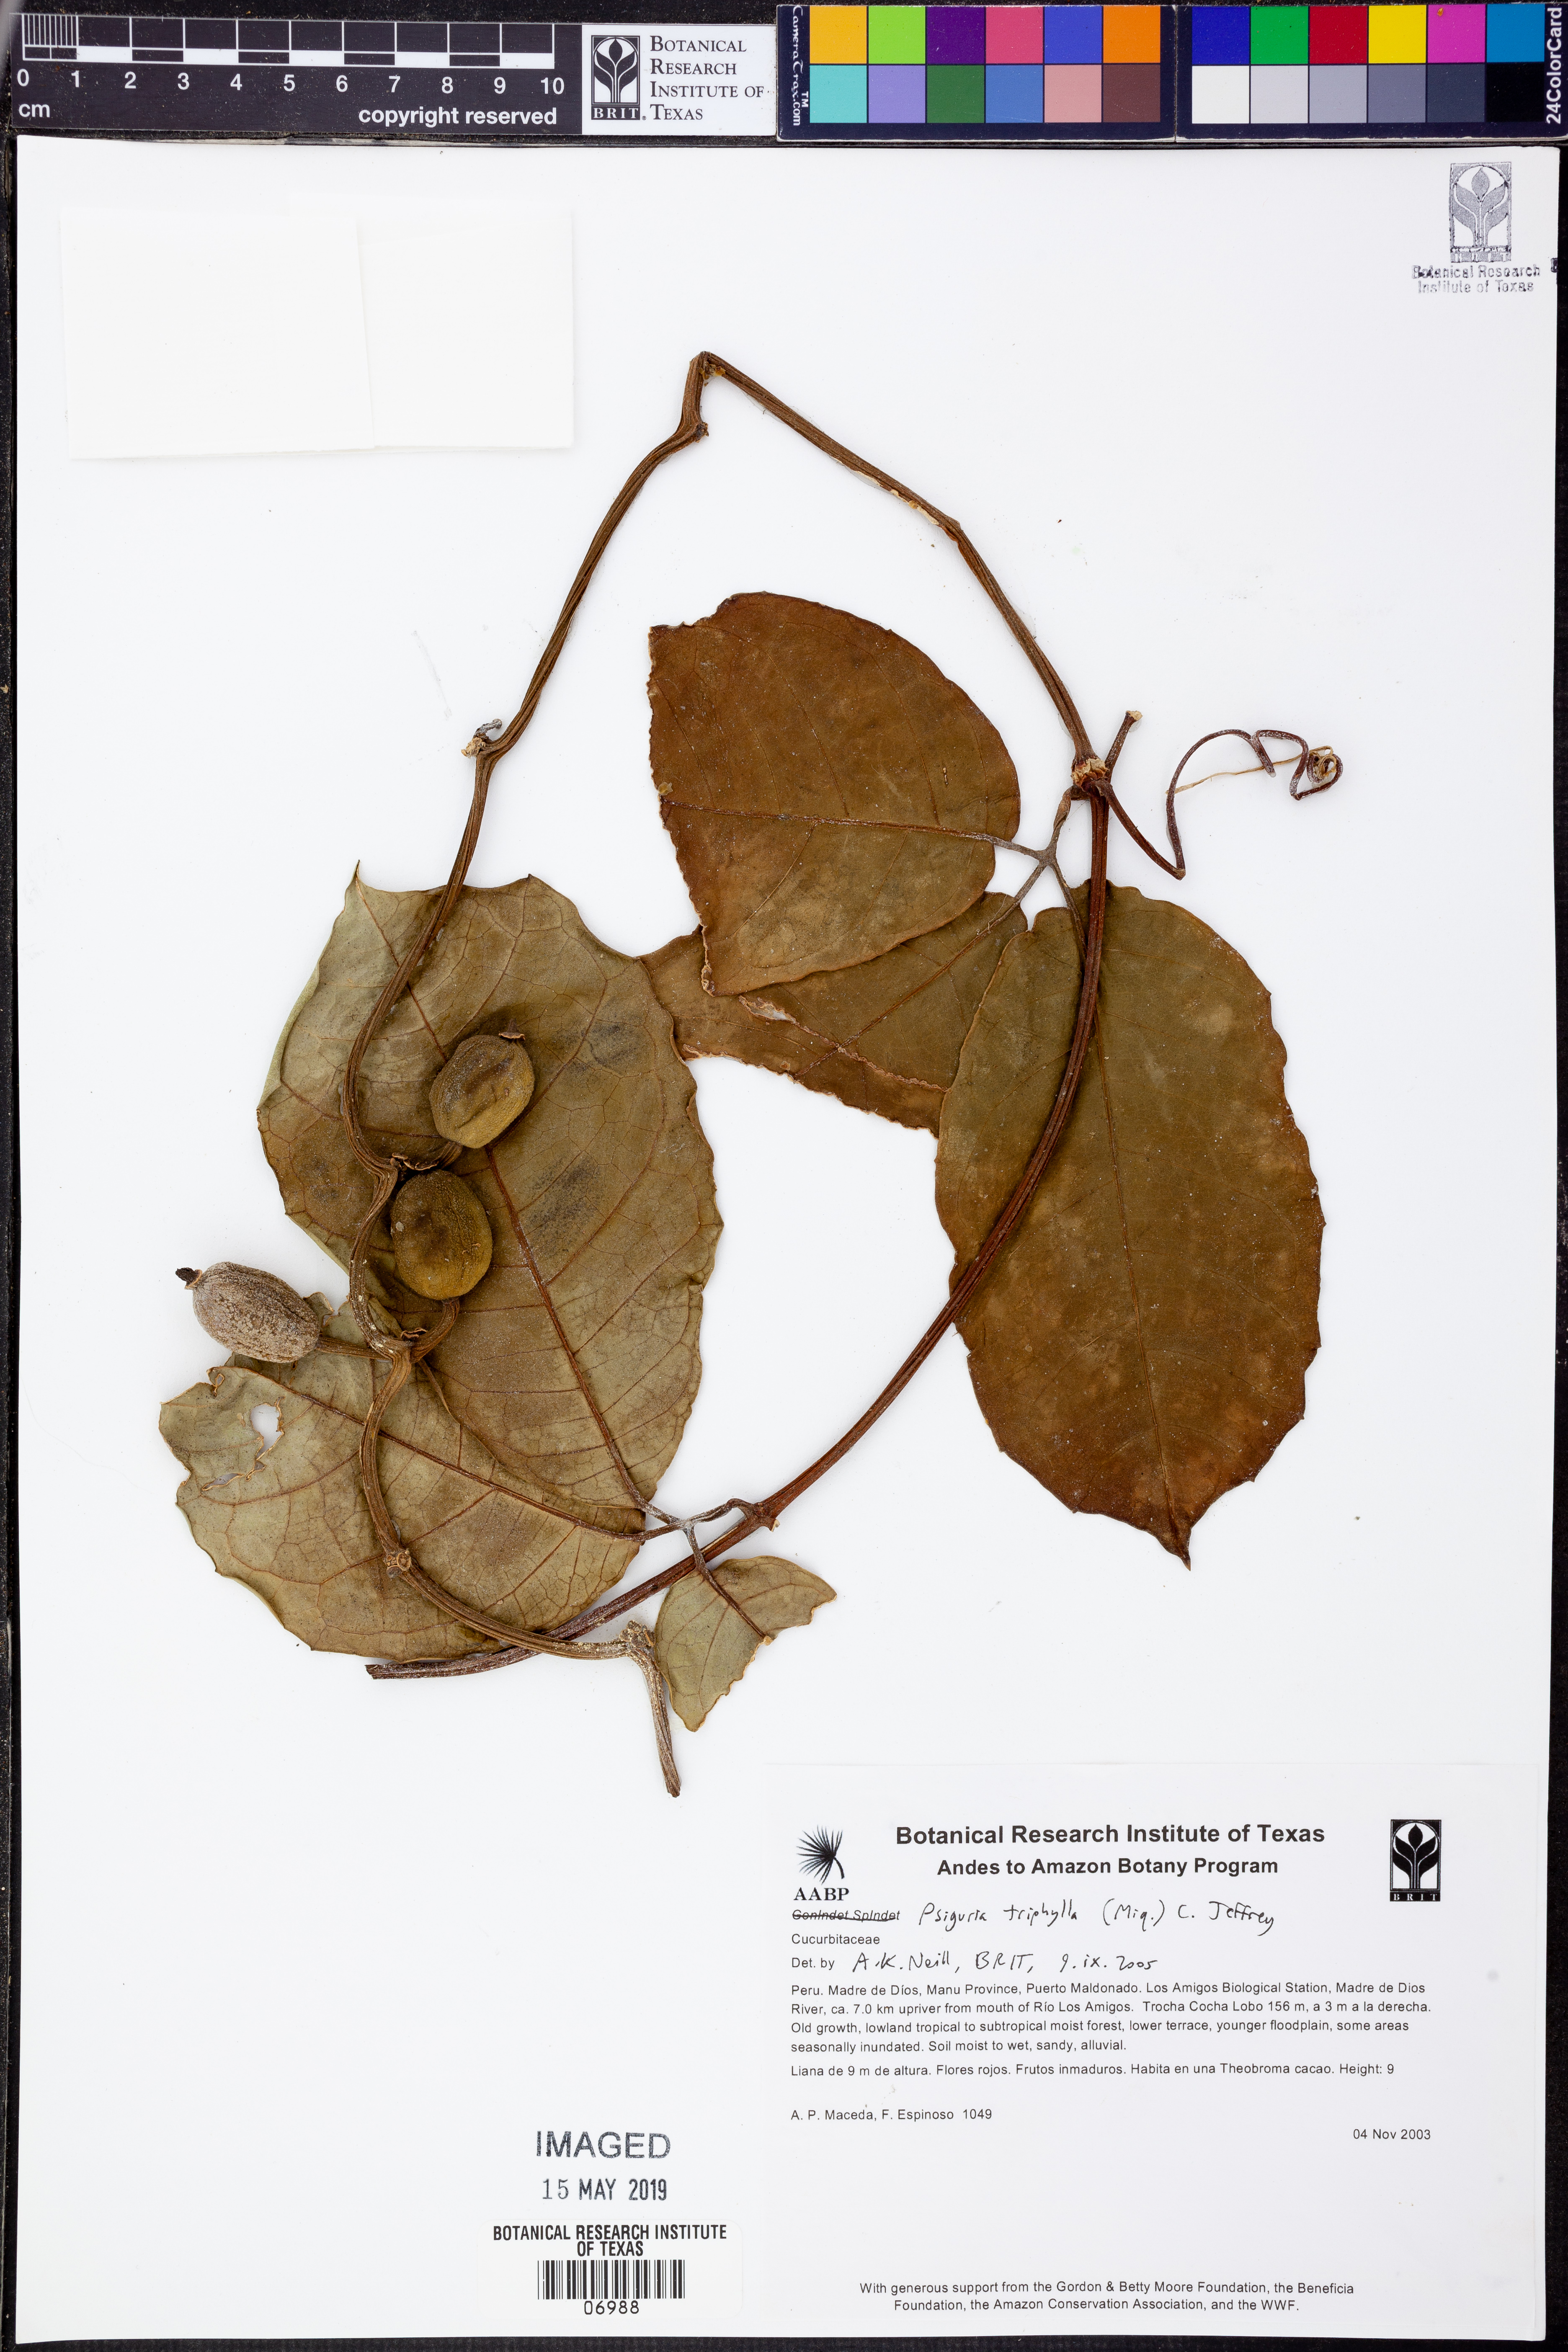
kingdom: Plantae
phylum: Tracheophyta
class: Magnoliopsida
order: Cucurbitales
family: Cucurbitaceae
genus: Psiguria
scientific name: Psiguria
